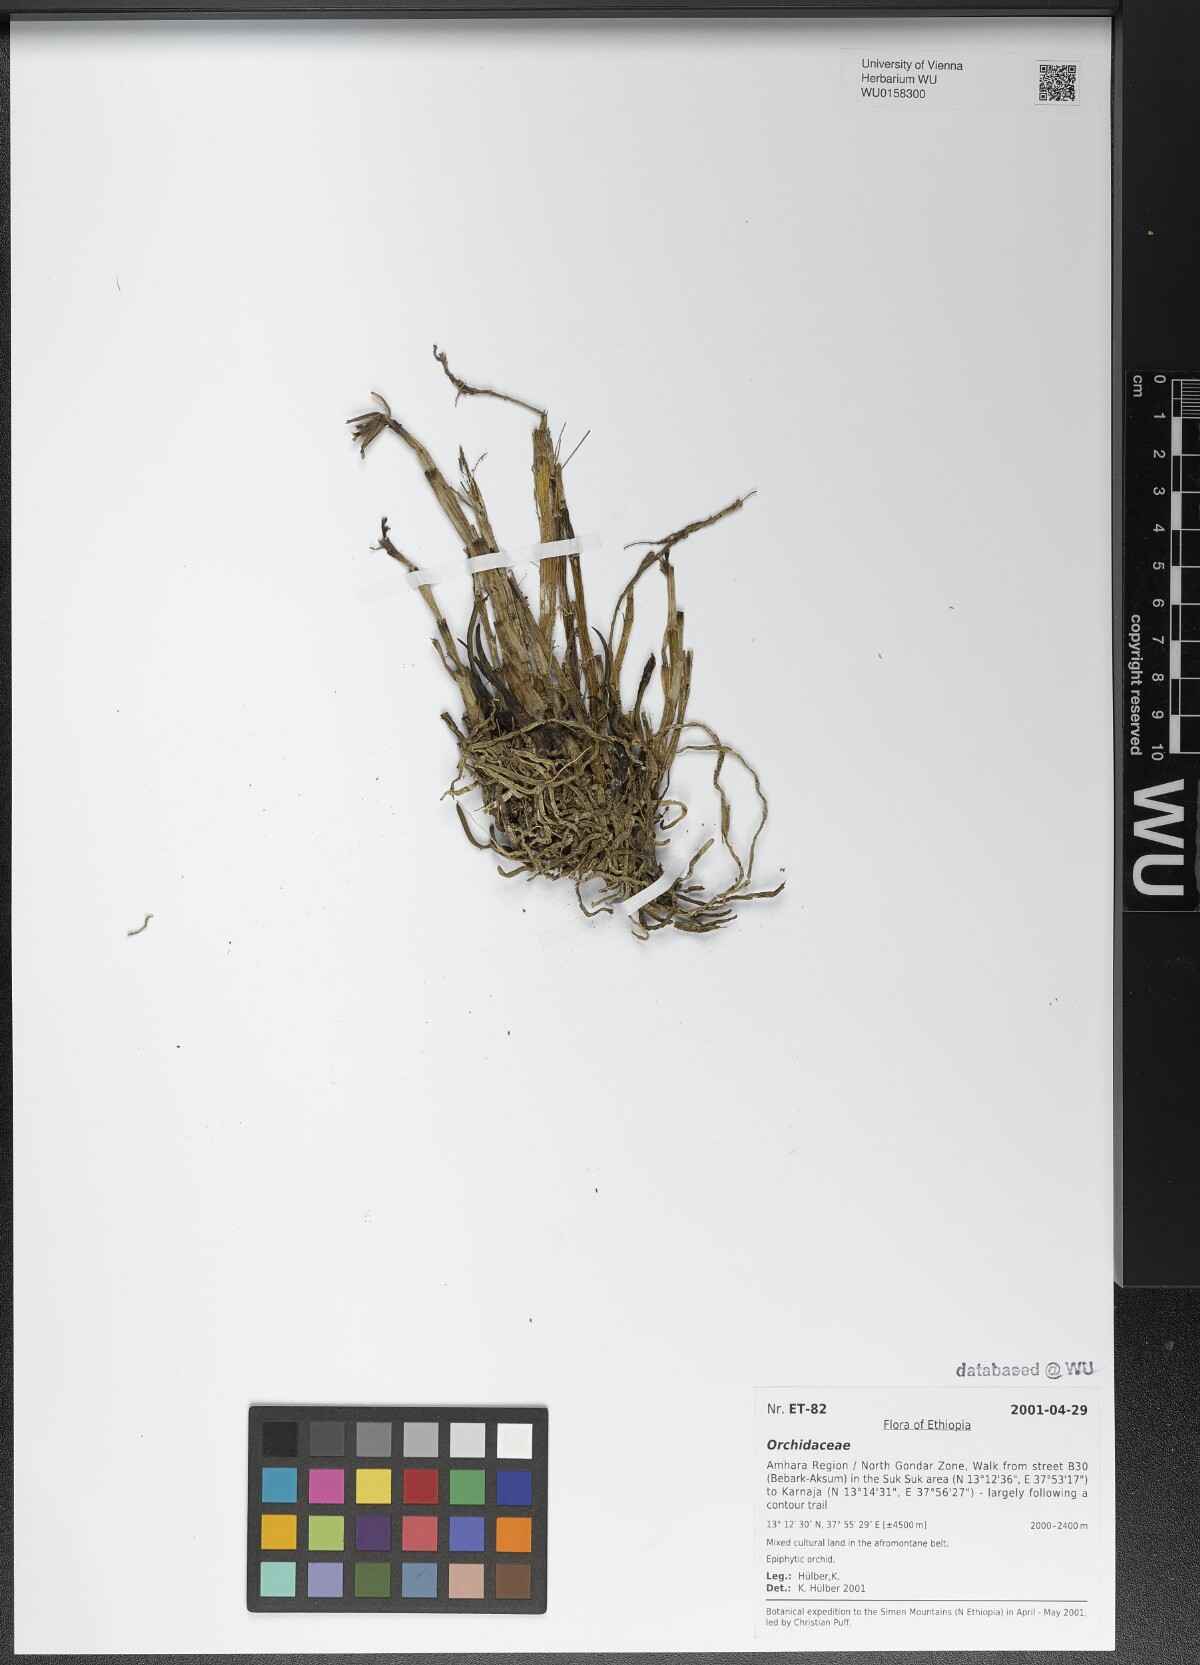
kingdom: Plantae
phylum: Tracheophyta
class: Liliopsida
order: Asparagales
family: Orchidaceae
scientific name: Orchidaceae
